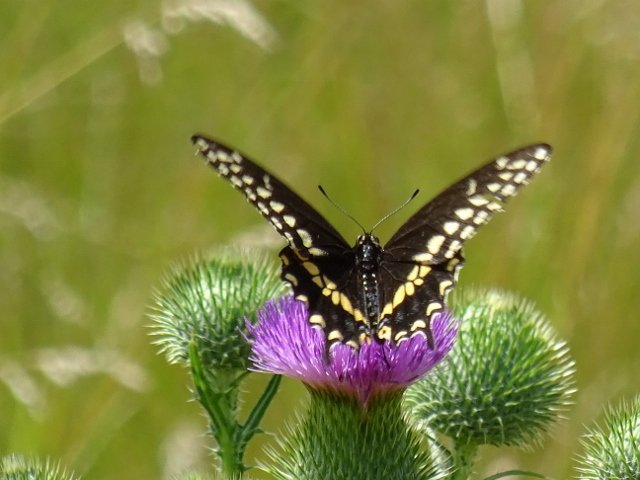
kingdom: Animalia
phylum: Arthropoda
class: Insecta
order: Lepidoptera
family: Papilionidae
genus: Papilio
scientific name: Papilio polyxenes
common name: Black Swallowtail
